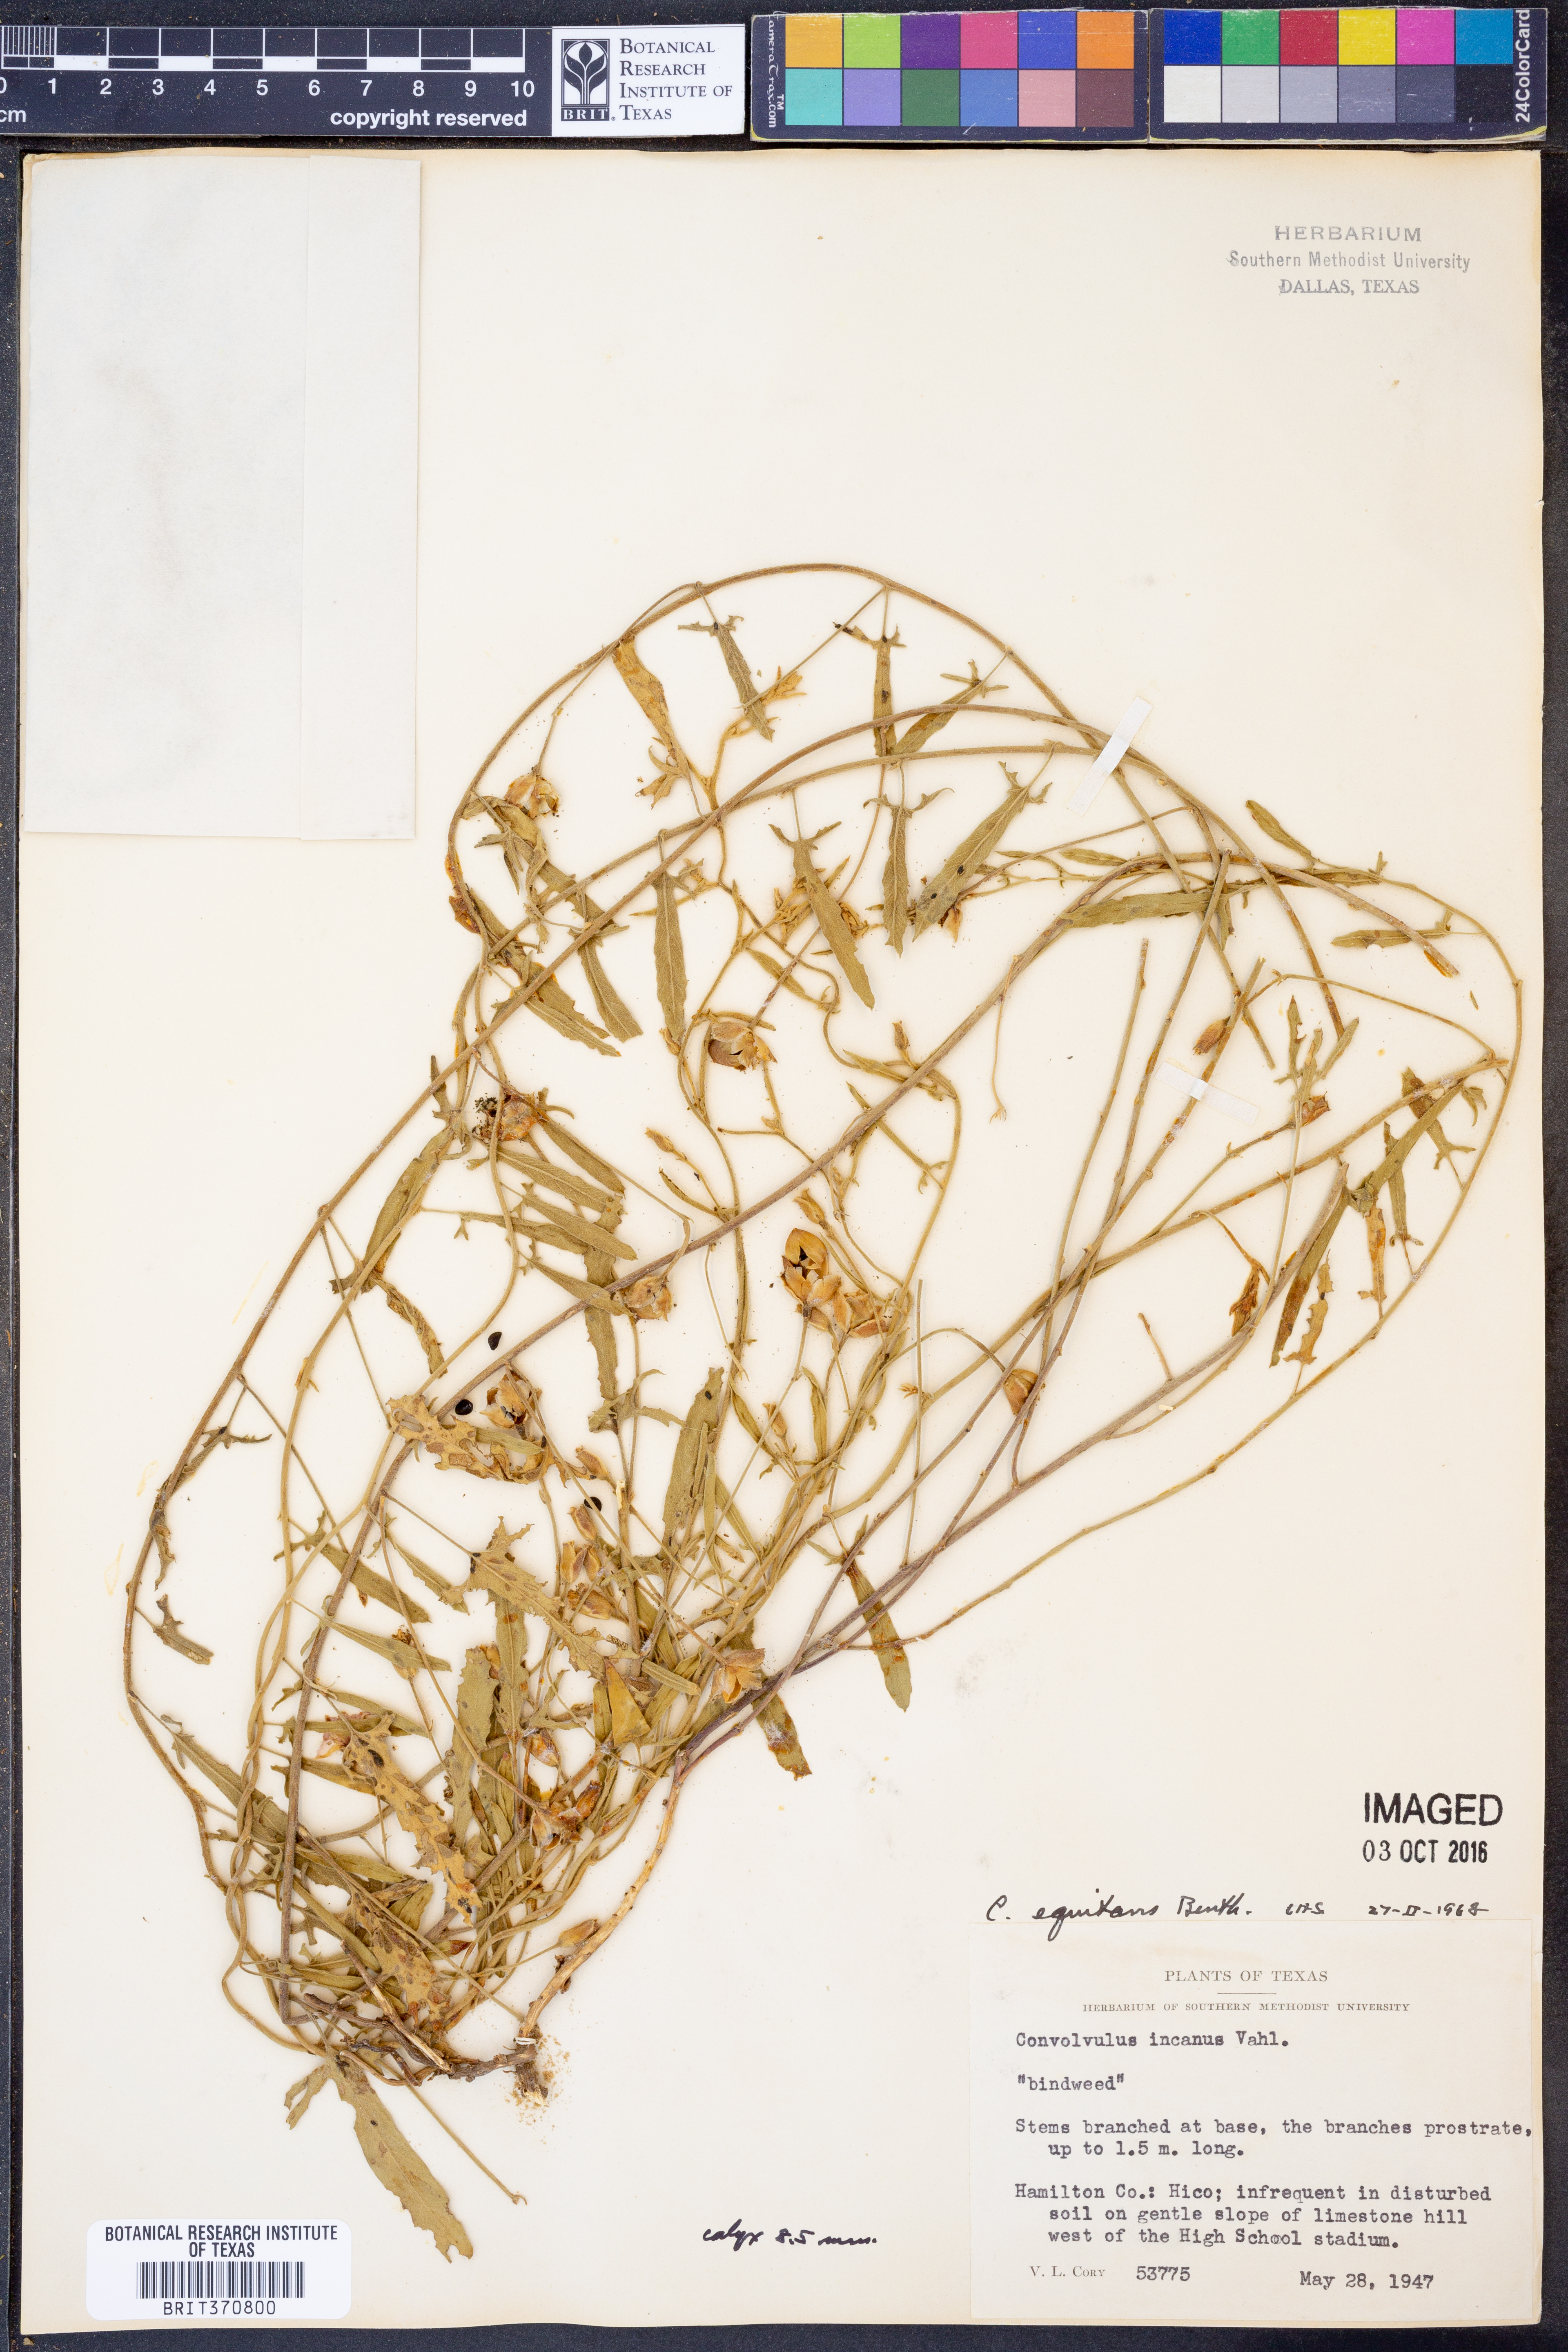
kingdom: Plantae
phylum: Tracheophyta
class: Magnoliopsida
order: Solanales
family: Convolvulaceae
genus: Convolvulus
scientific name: Convolvulus equitans
